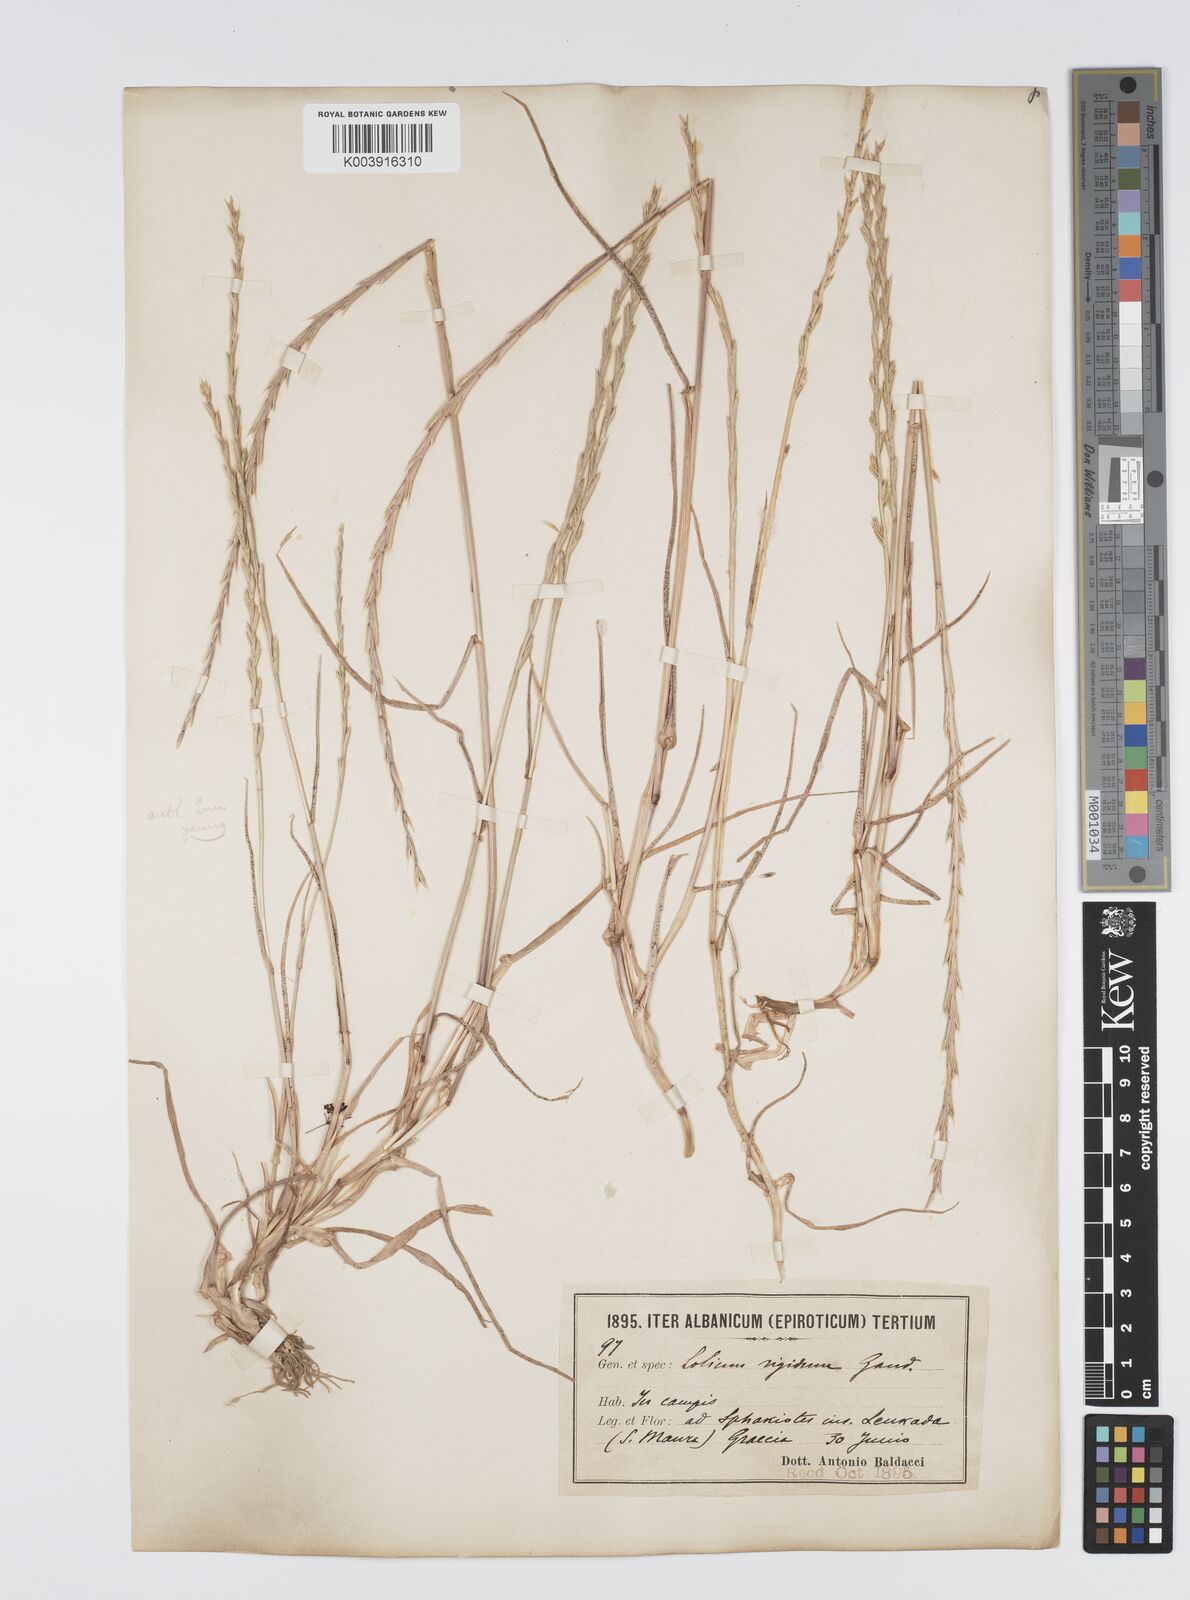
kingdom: Plantae
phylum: Tracheophyta
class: Liliopsida
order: Poales
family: Poaceae
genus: Lolium
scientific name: Lolium rigidum
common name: Wimmera ryegrass
